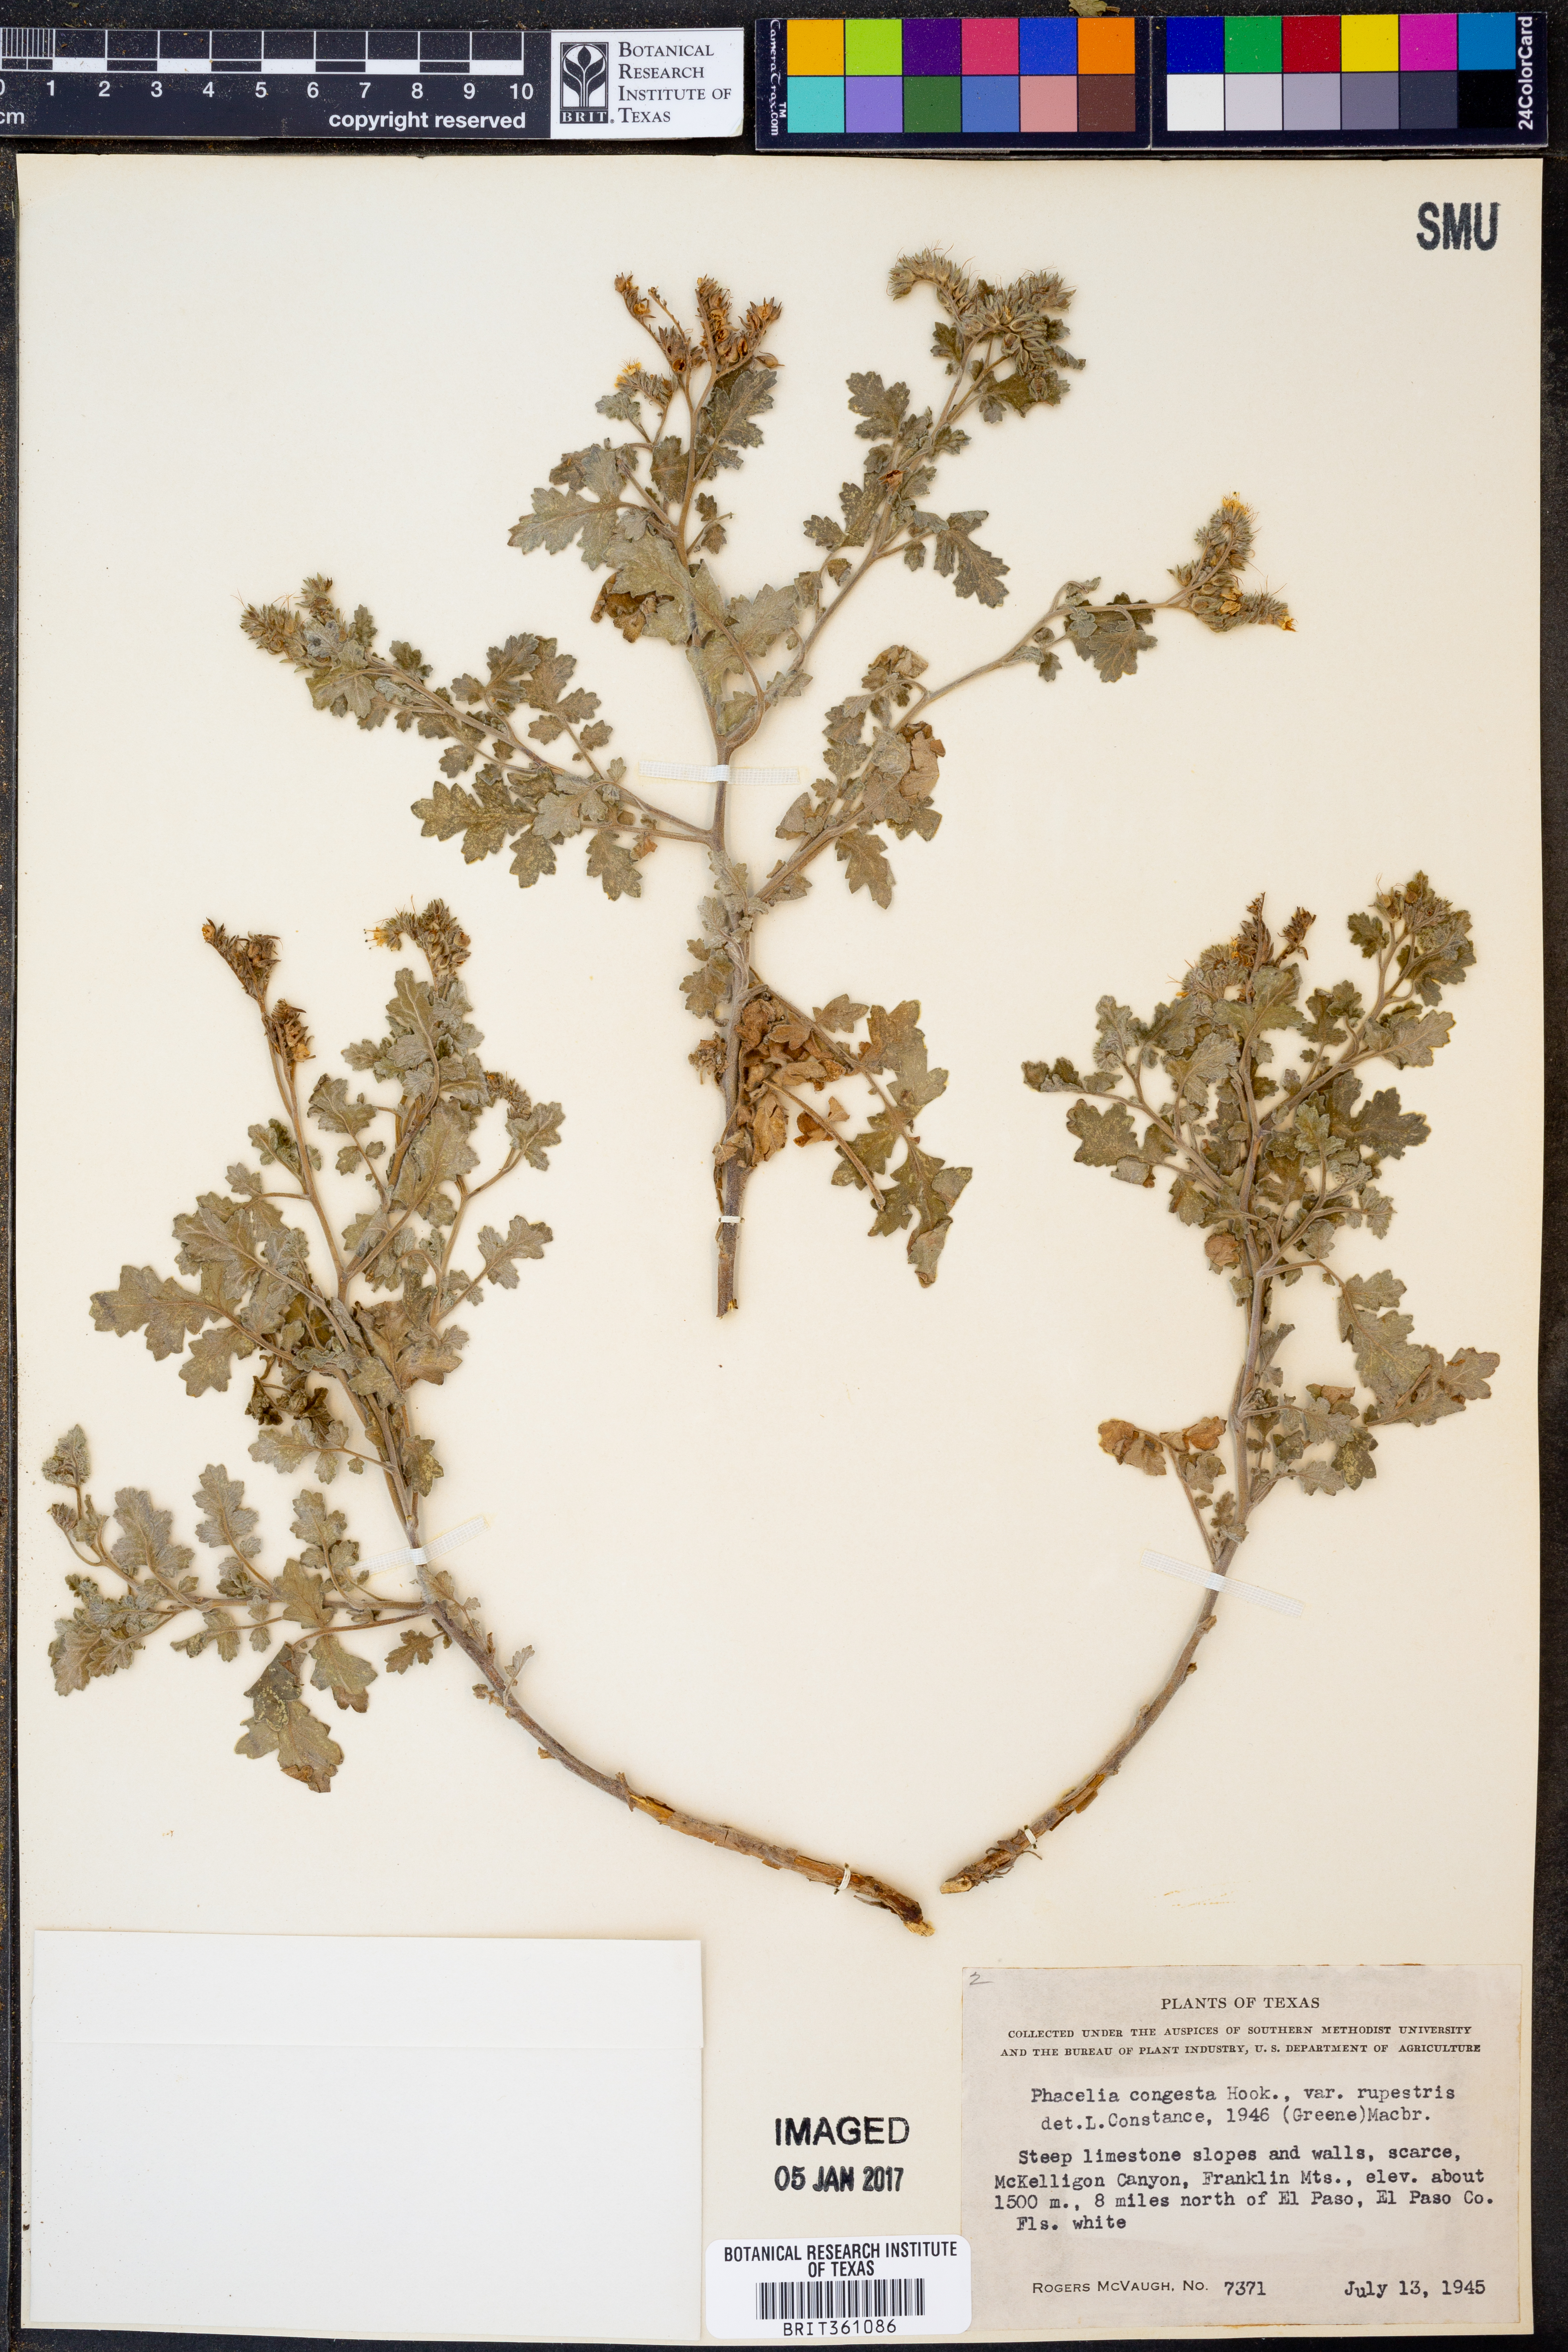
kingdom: Plantae
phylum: Tracheophyta
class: Magnoliopsida
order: Boraginales
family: Hydrophyllaceae
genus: Phacelia
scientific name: Phacelia rupestris
